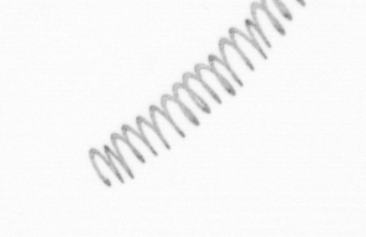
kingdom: Chromista
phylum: Ochrophyta
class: Bacillariophyceae
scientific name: Bacillariophyceae
